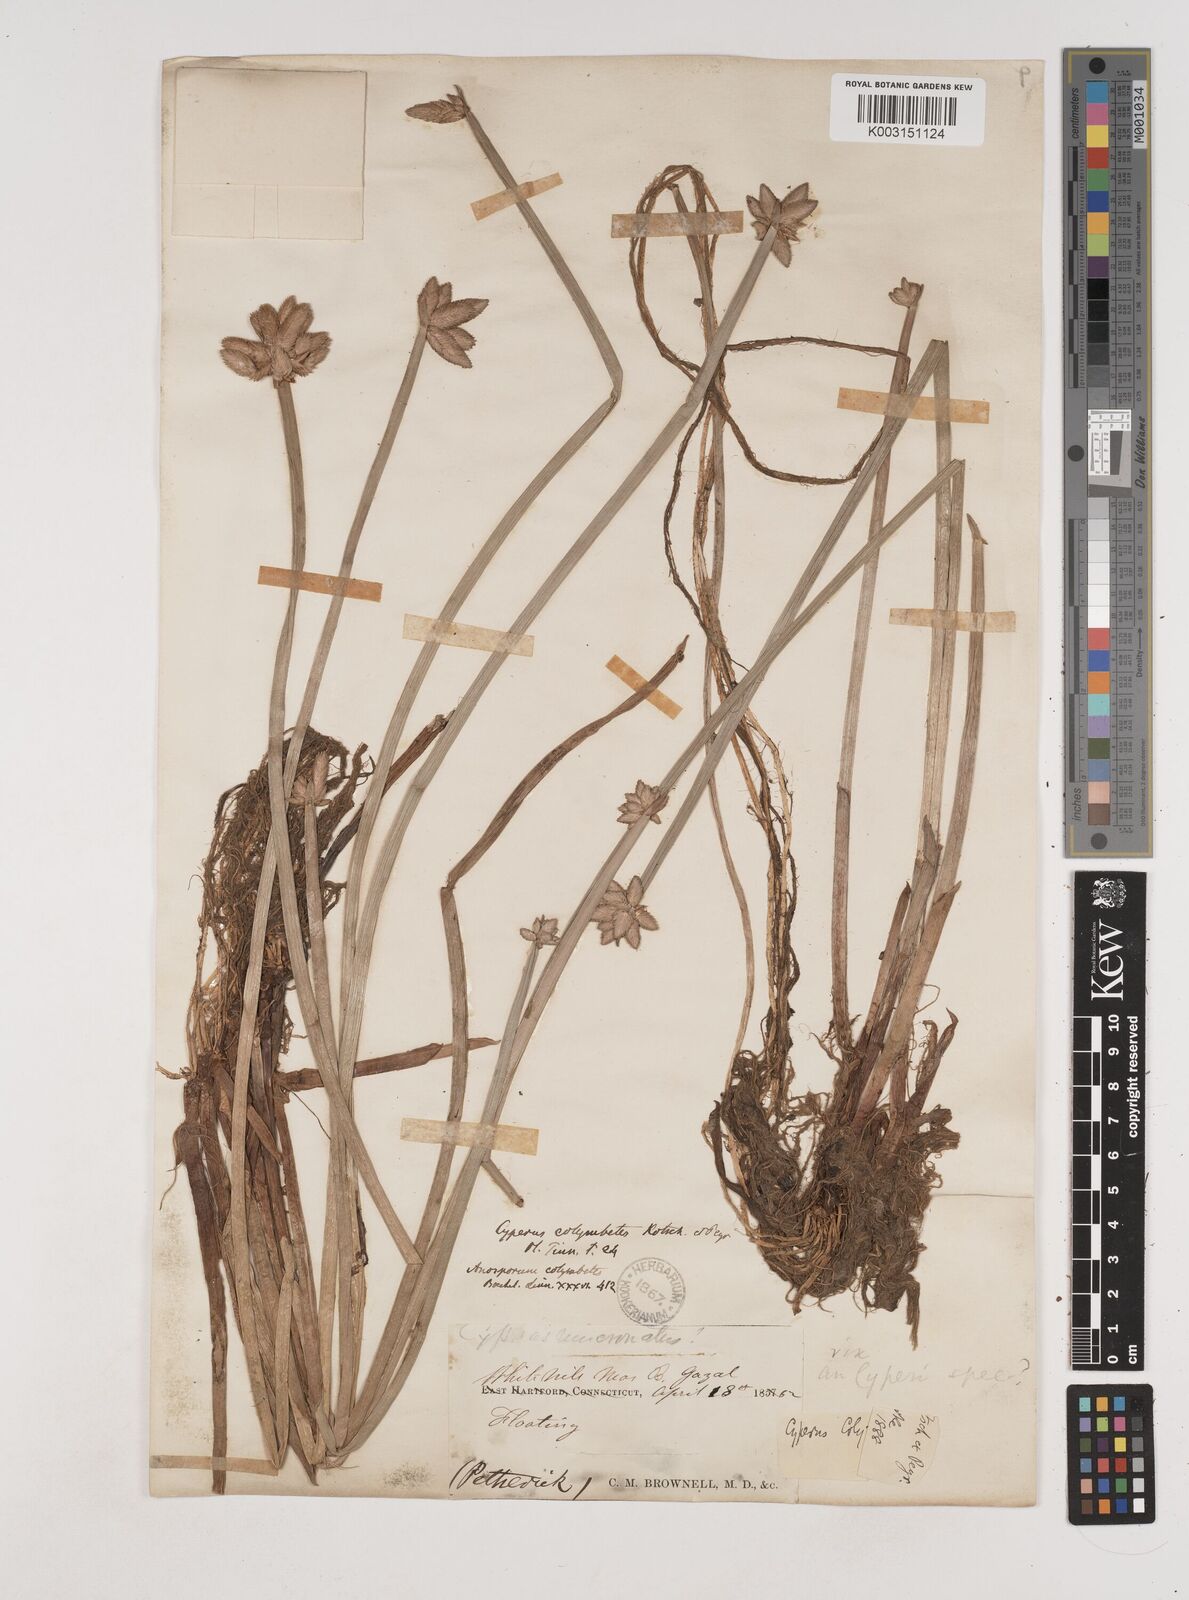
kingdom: Plantae
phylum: Tracheophyta
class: Liliopsida
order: Poales
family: Cyperaceae
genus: Cyperus
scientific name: Cyperus colymbetes
